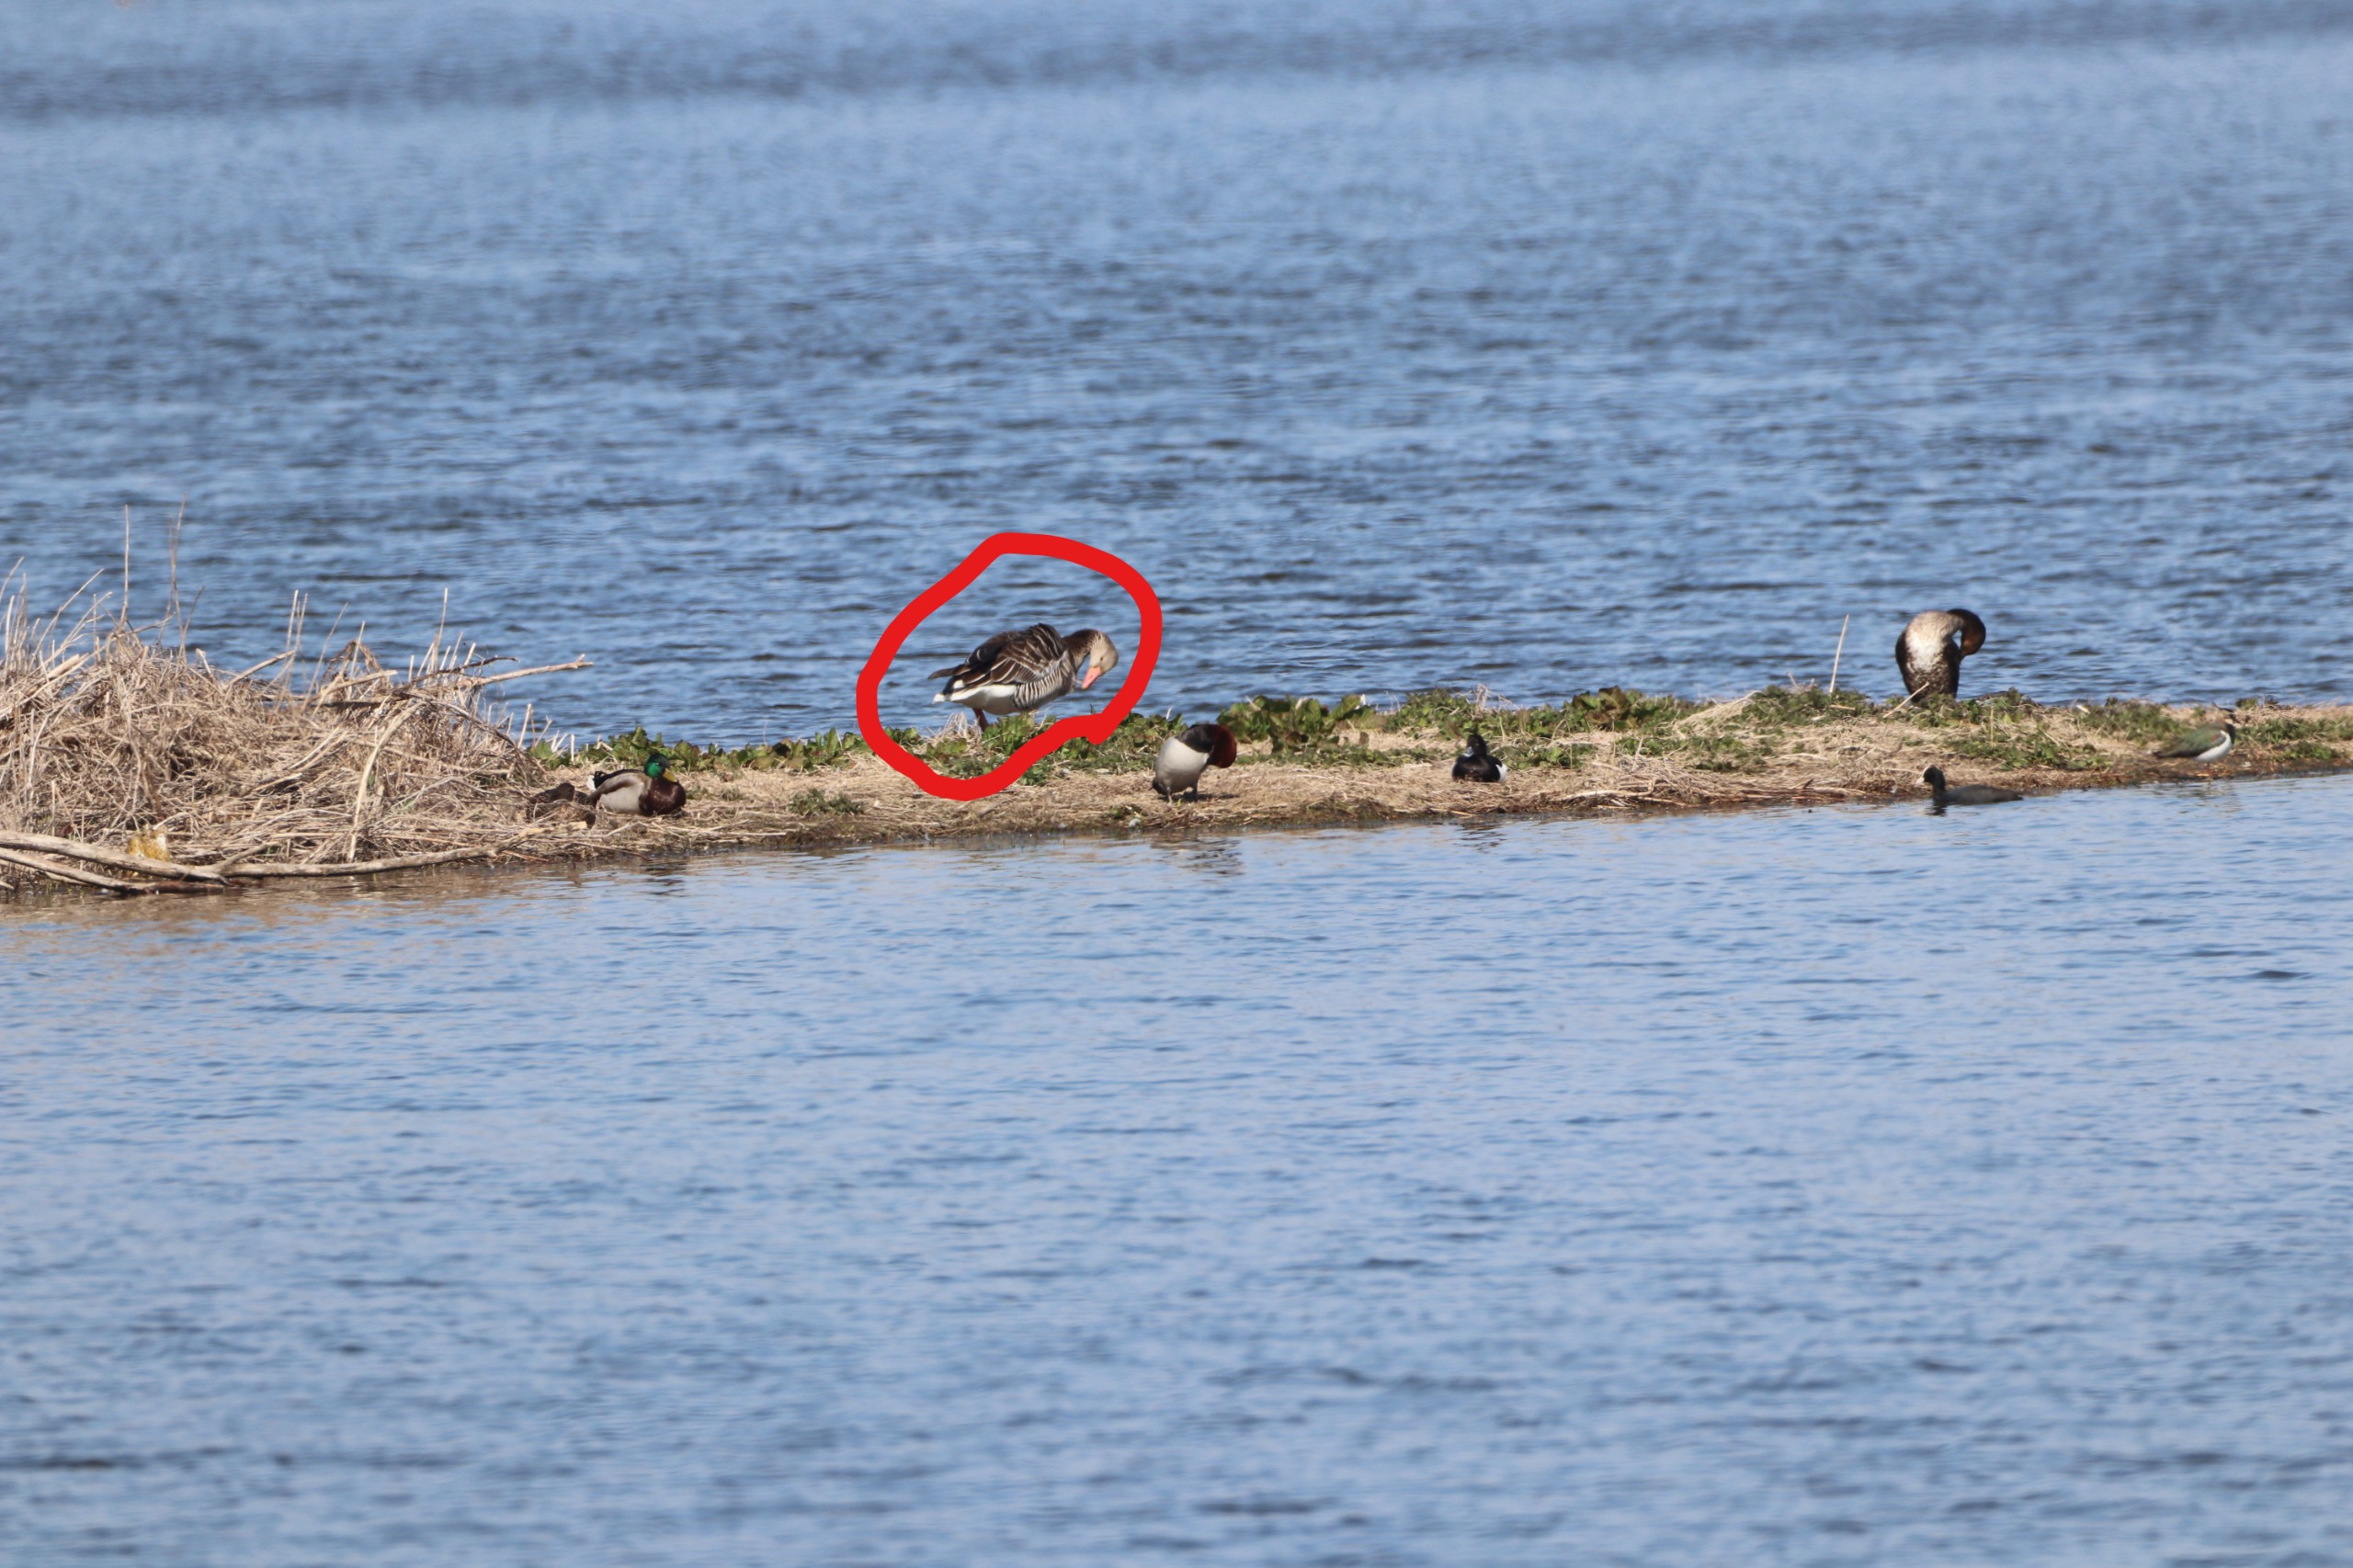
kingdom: Animalia
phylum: Chordata
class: Aves
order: Anseriformes
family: Anatidae
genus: Anser
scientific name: Anser anser
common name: Grågås
